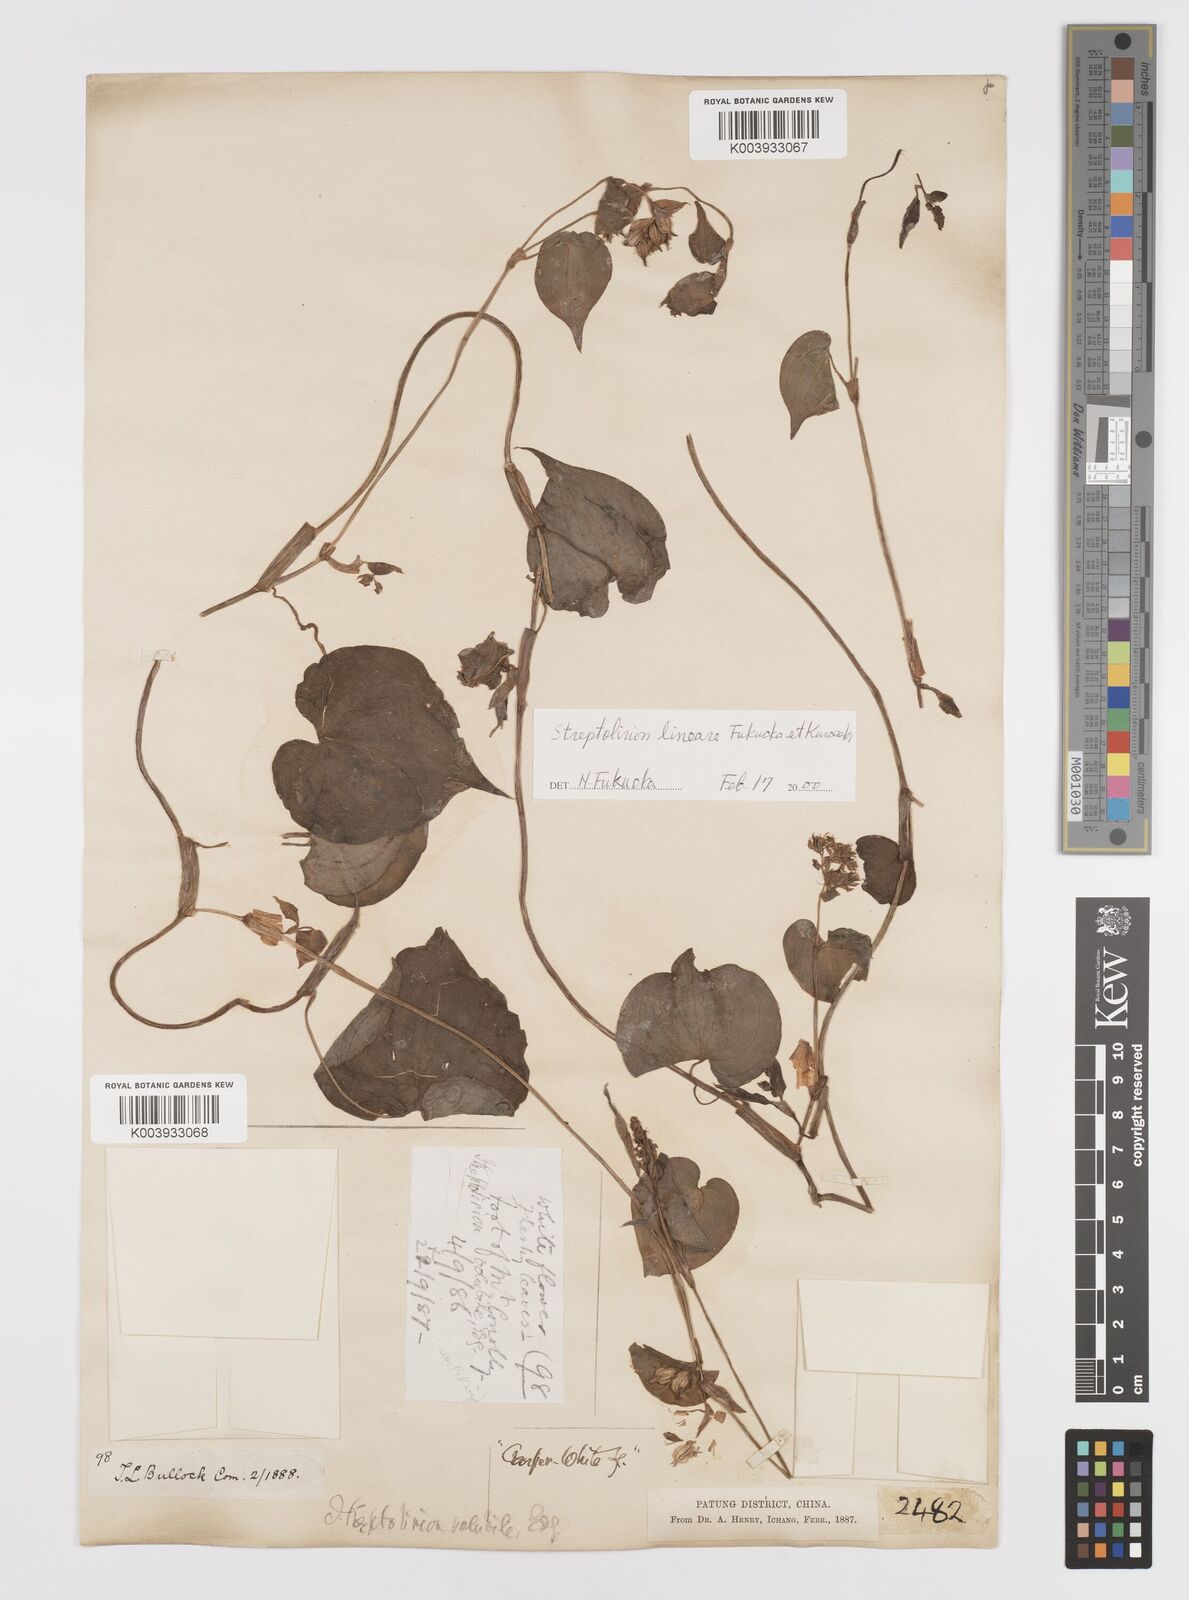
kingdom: Plantae
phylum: Tracheophyta
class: Liliopsida
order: Commelinales
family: Commelinaceae
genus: Streptolirion
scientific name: Streptolirion lineare
